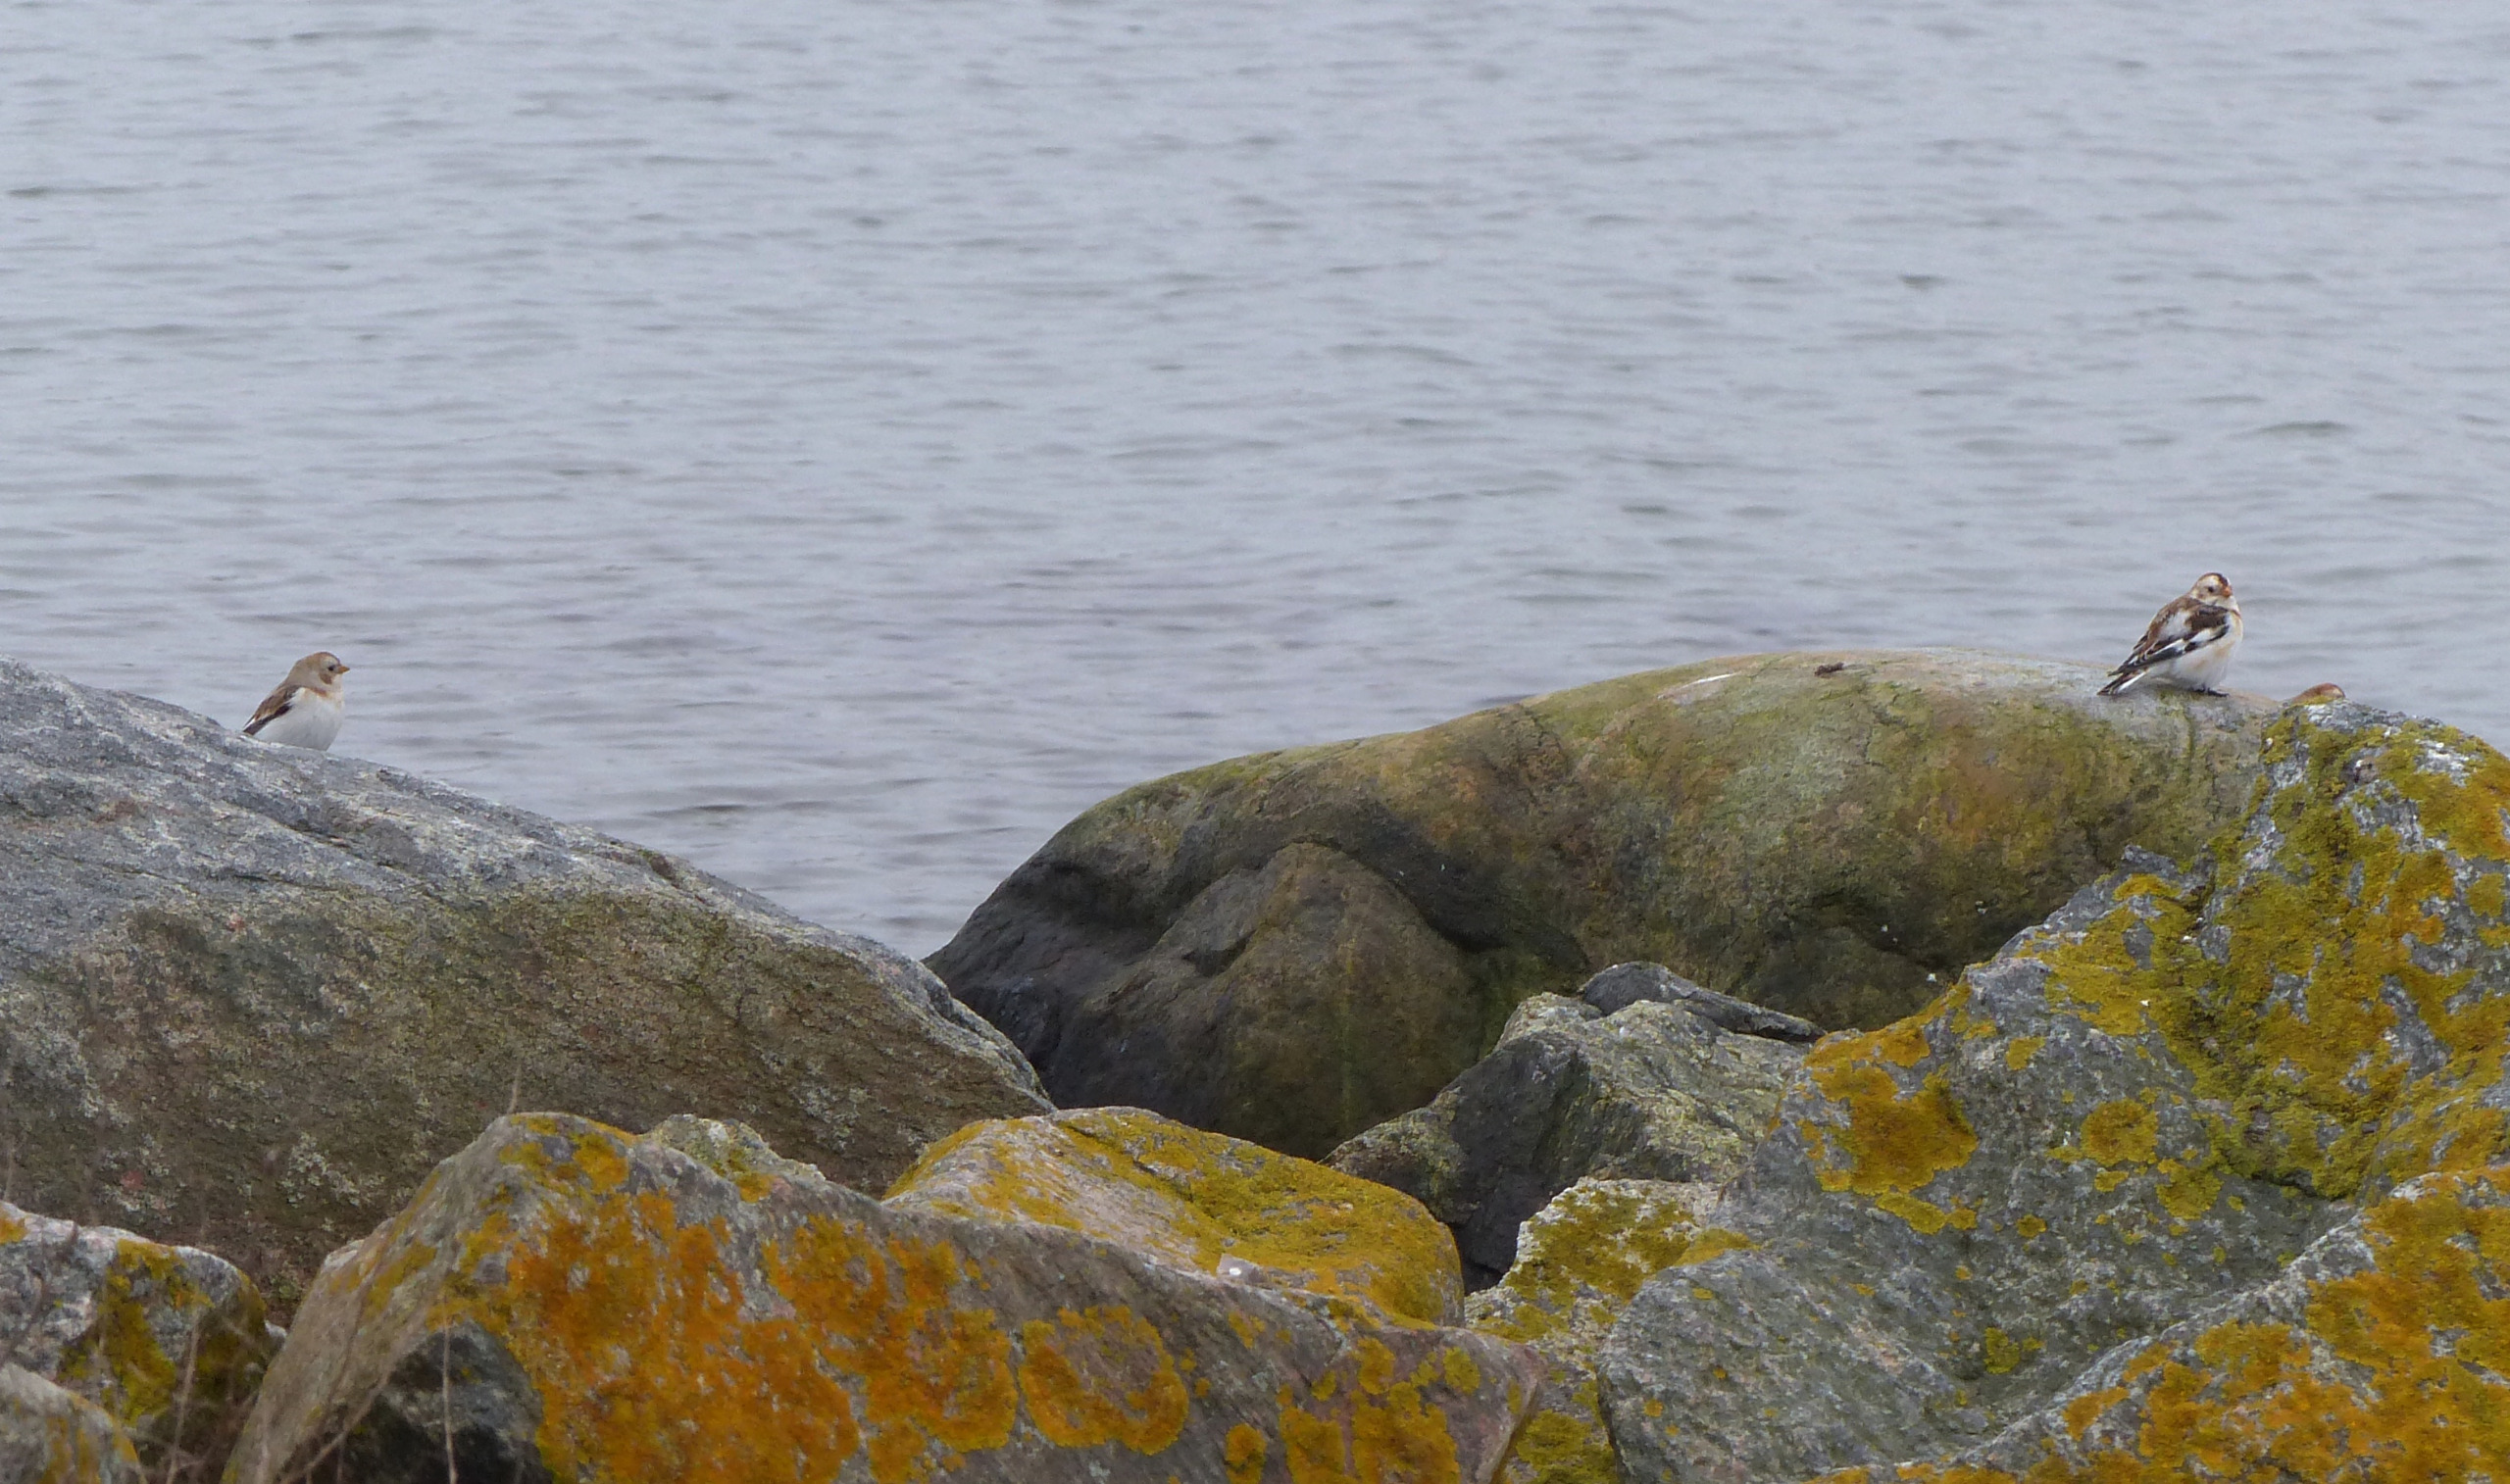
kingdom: Animalia
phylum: Chordata
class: Aves
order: Passeriformes
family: Calcariidae
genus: Plectrophenax
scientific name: Plectrophenax nivalis
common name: Snespurv
